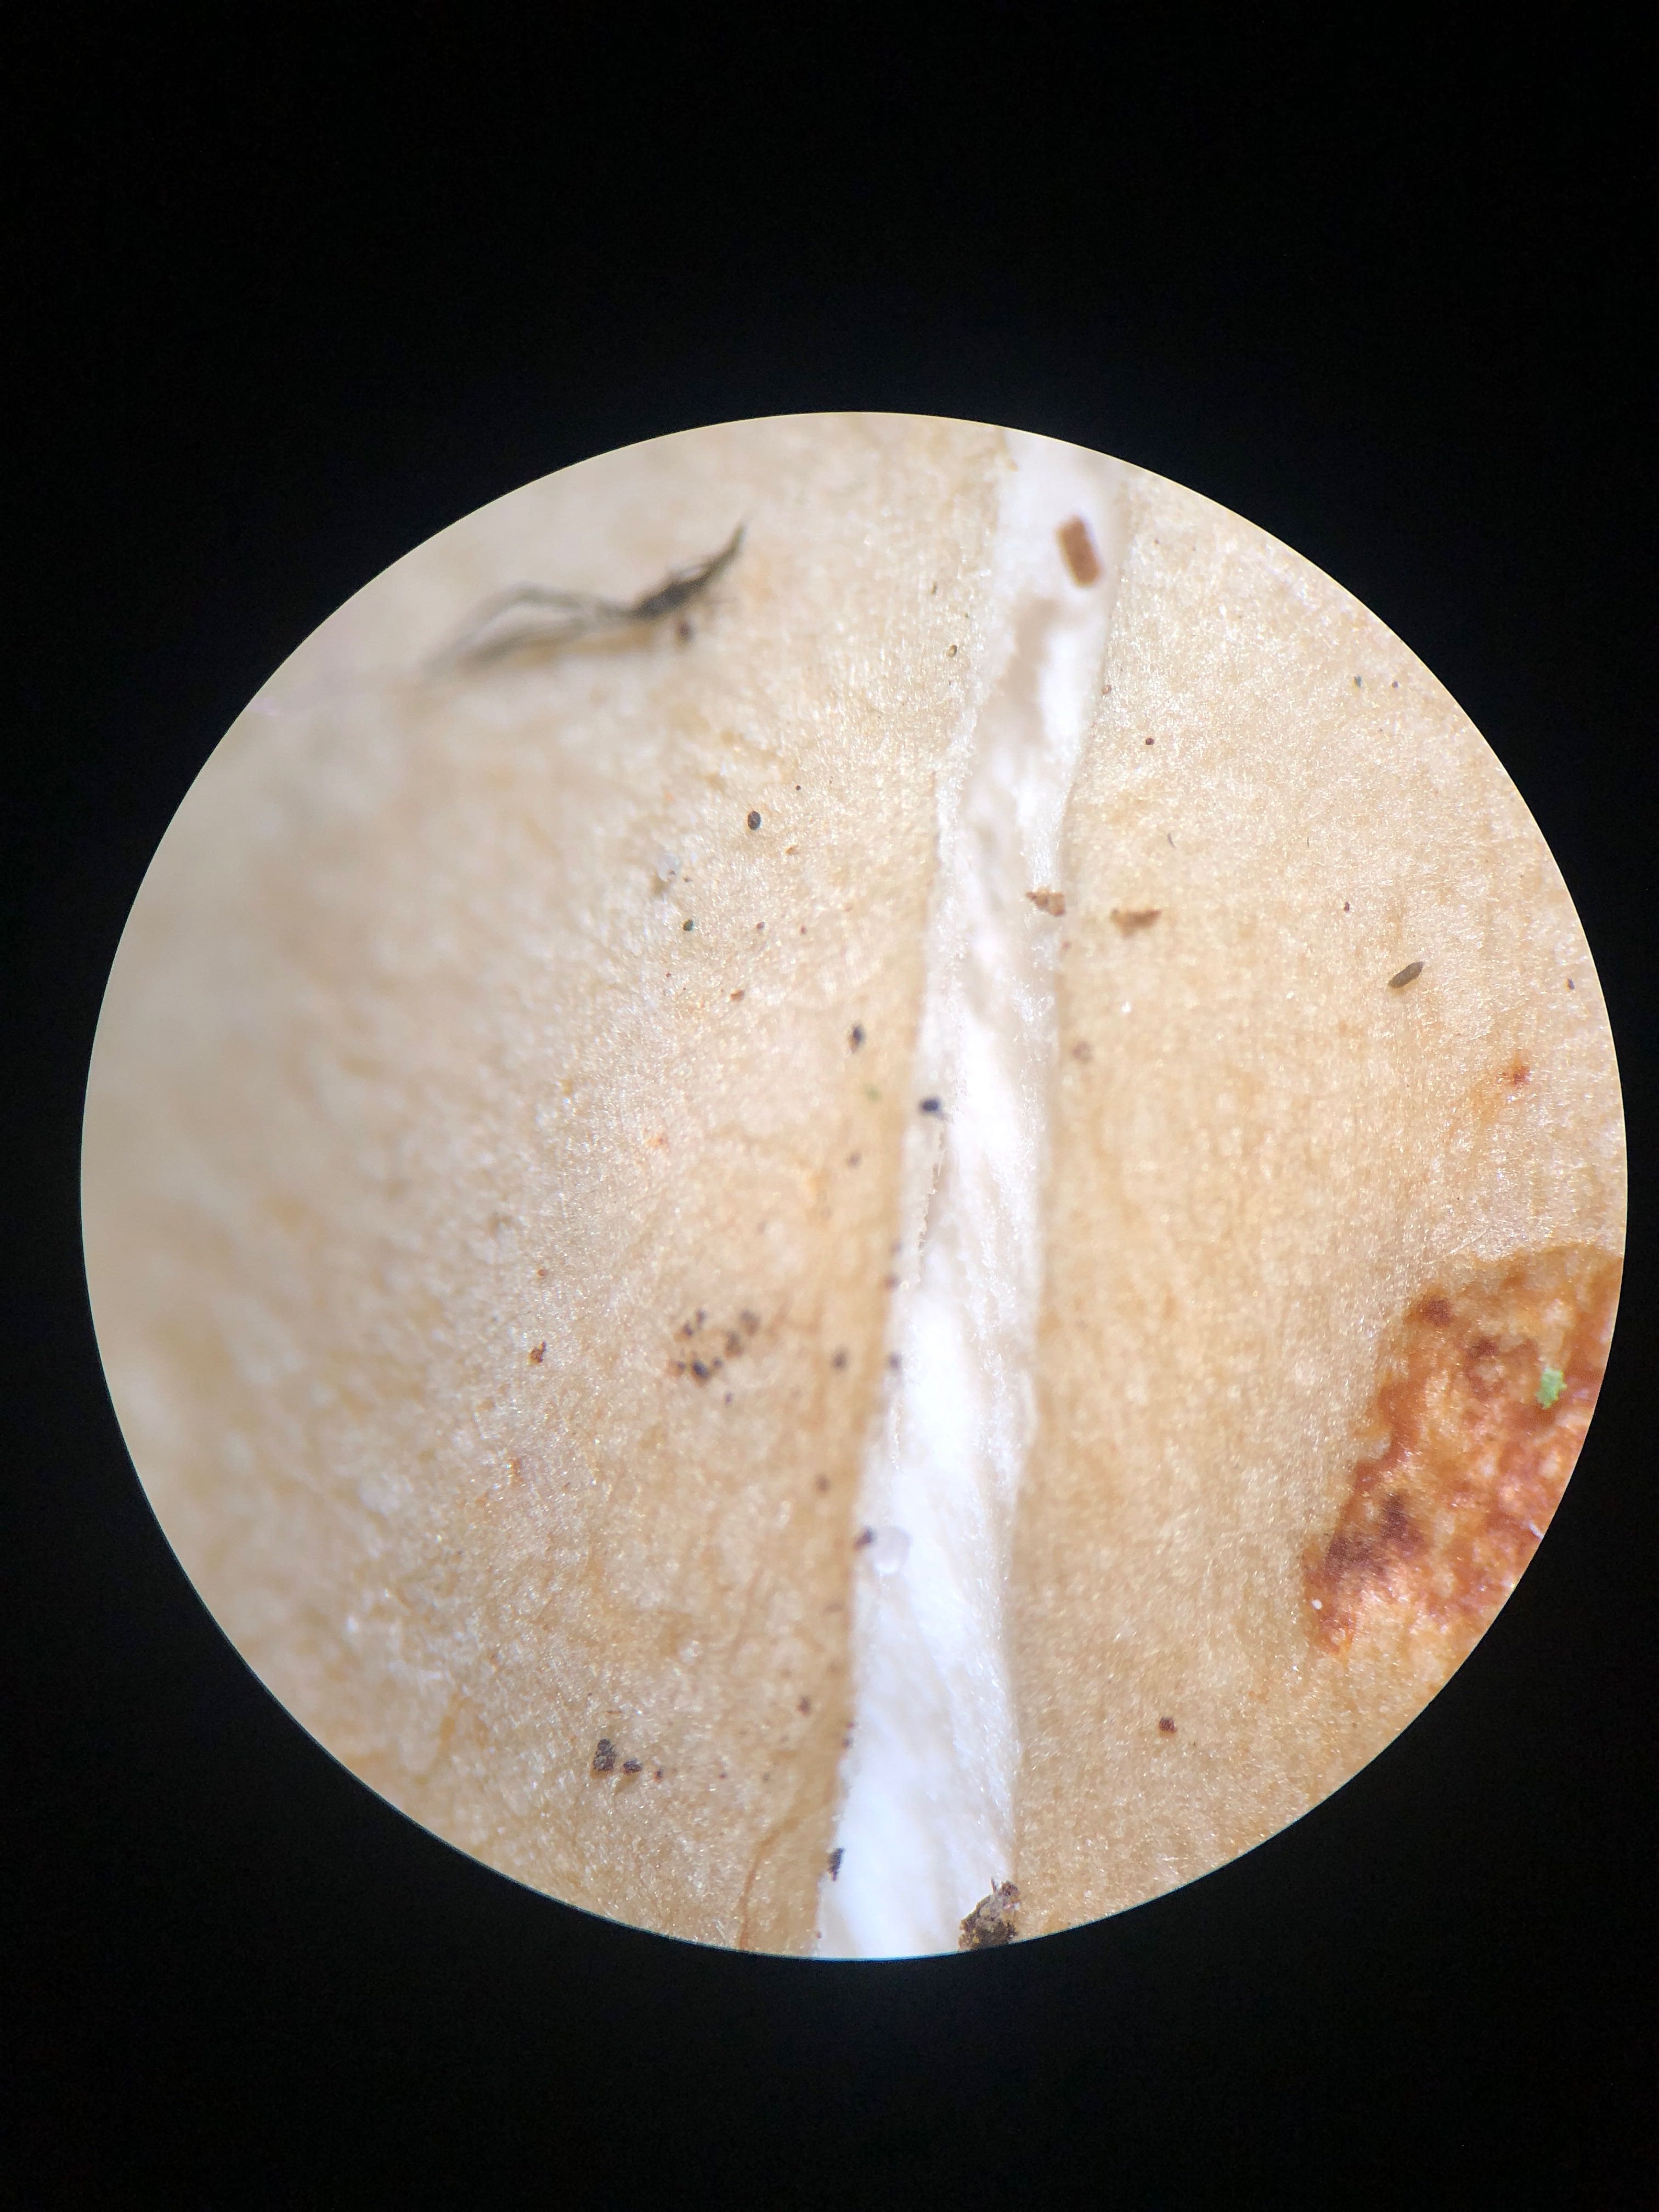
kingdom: Fungi
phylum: Basidiomycota
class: Agaricomycetes
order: Agaricales
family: Tricholomataceae
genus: Tricholoma
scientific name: Tricholoma lascivum
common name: stinkende ridderhat
